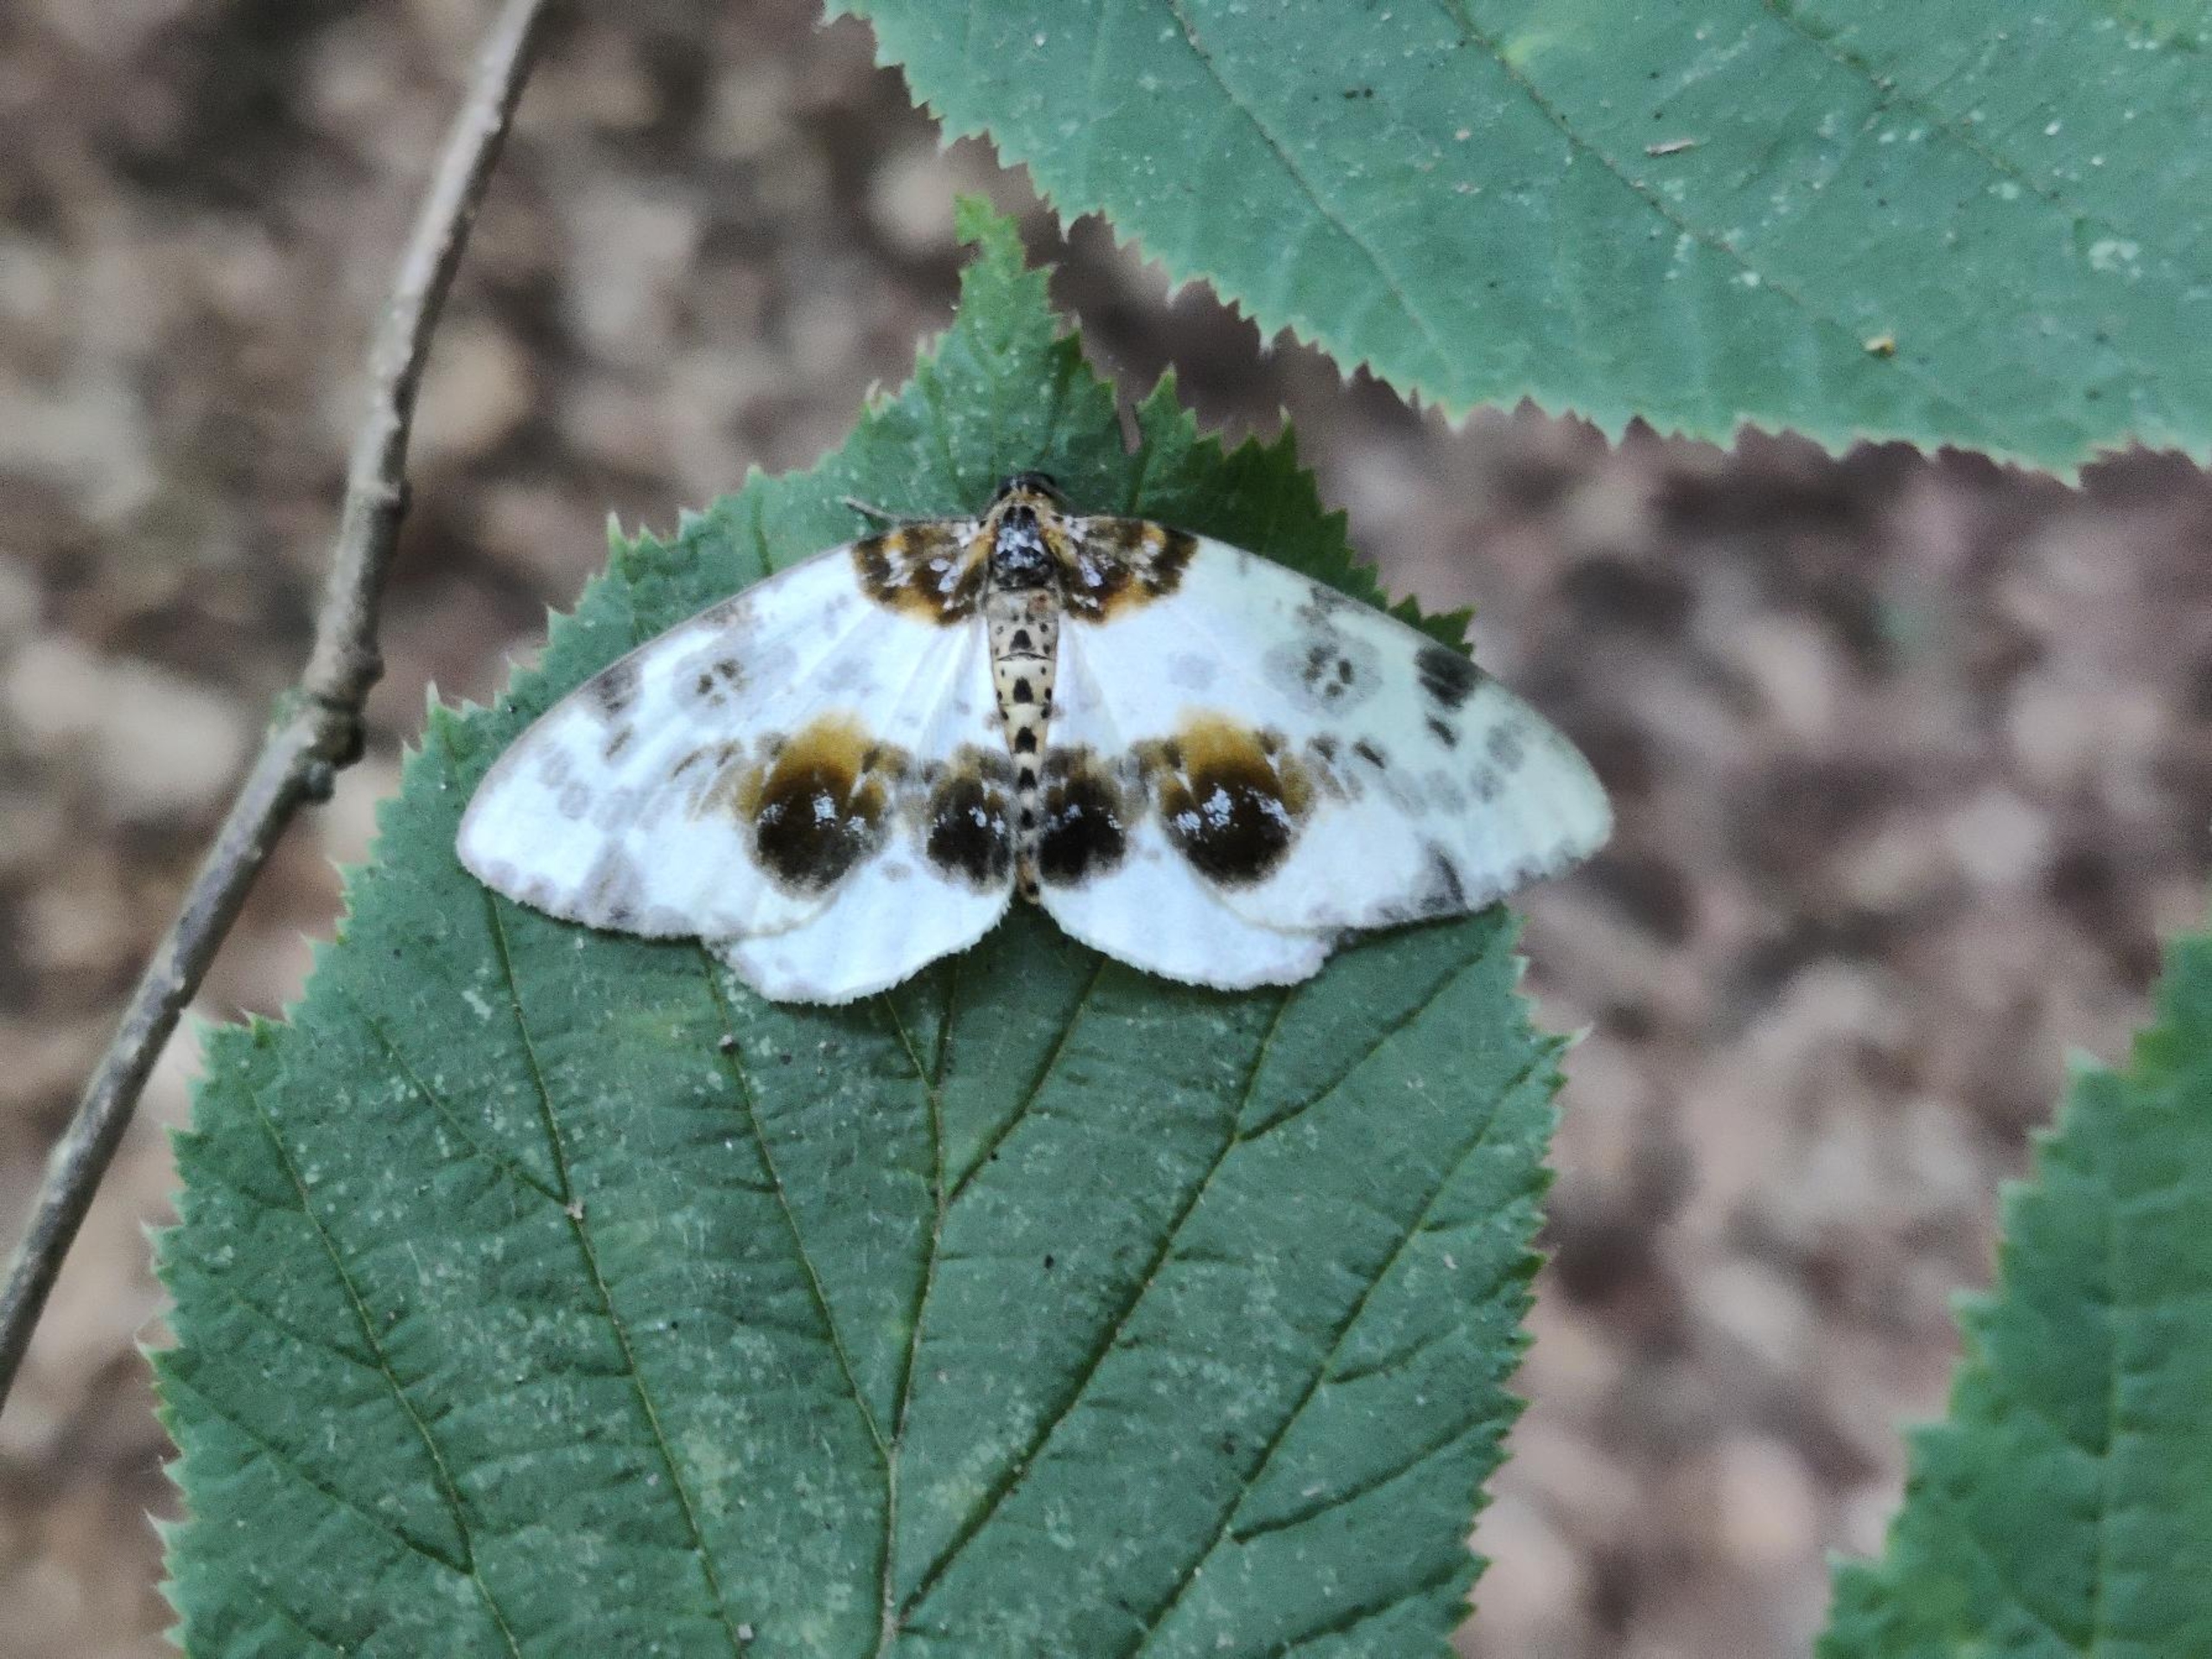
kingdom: Animalia
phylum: Arthropoda
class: Insecta
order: Lepidoptera
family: Geometridae
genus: Abraxas
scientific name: Abraxas sylvata
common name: Elmemåler
